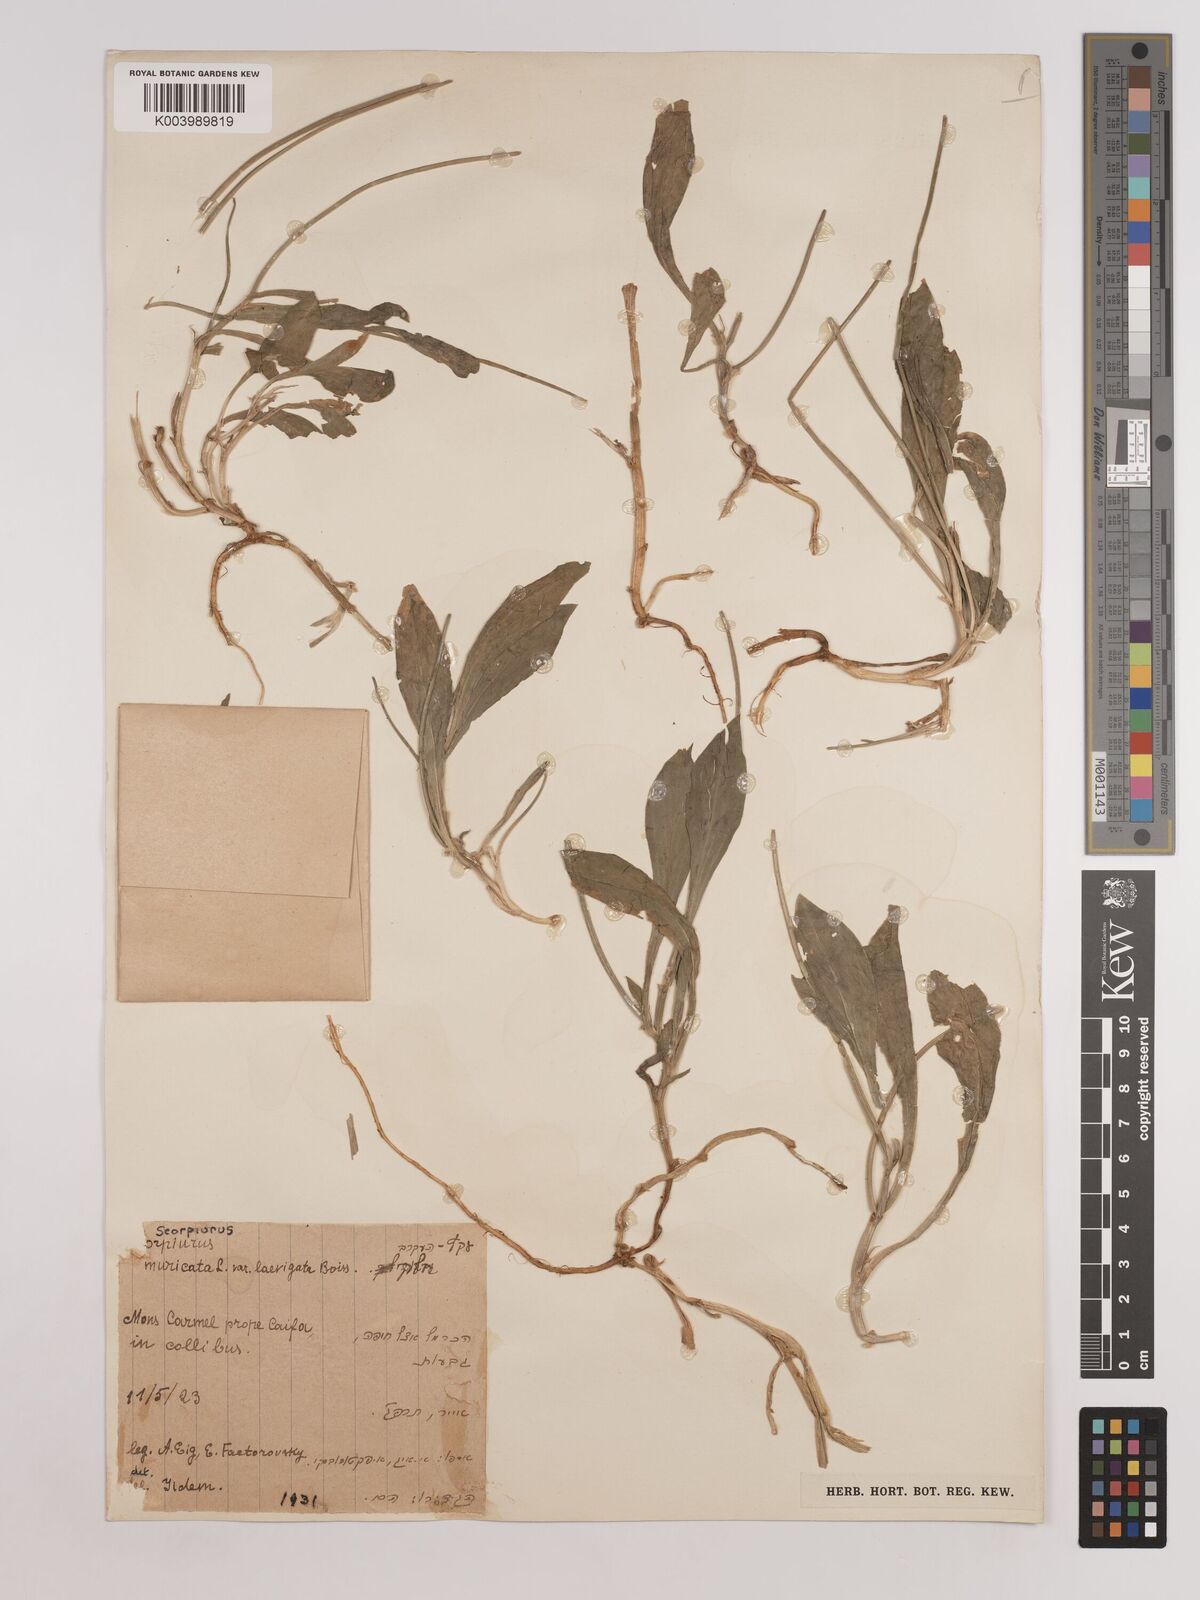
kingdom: Plantae
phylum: Tracheophyta
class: Magnoliopsida
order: Fabales
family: Fabaceae
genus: Scorpiurus
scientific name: Scorpiurus muricatus
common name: Caterpillar-plant
